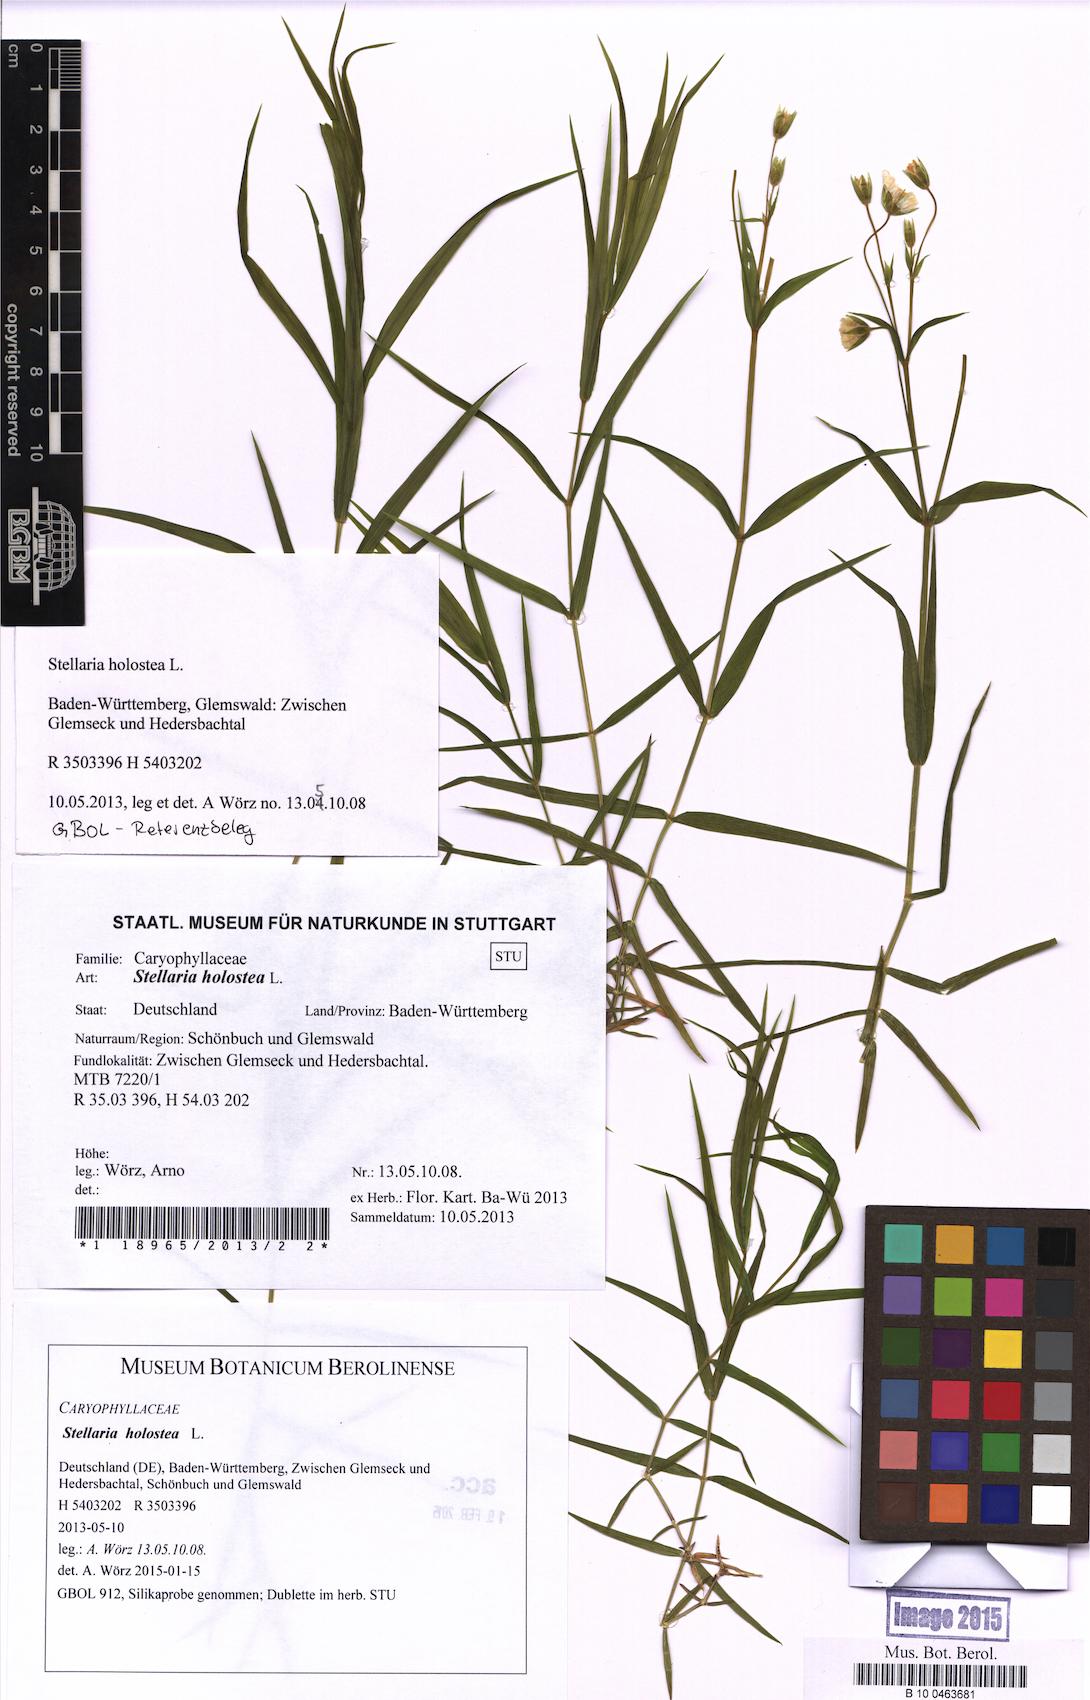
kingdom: Plantae
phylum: Tracheophyta
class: Magnoliopsida
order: Caryophyllales
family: Caryophyllaceae
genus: Rabelera
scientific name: Rabelera holostea
